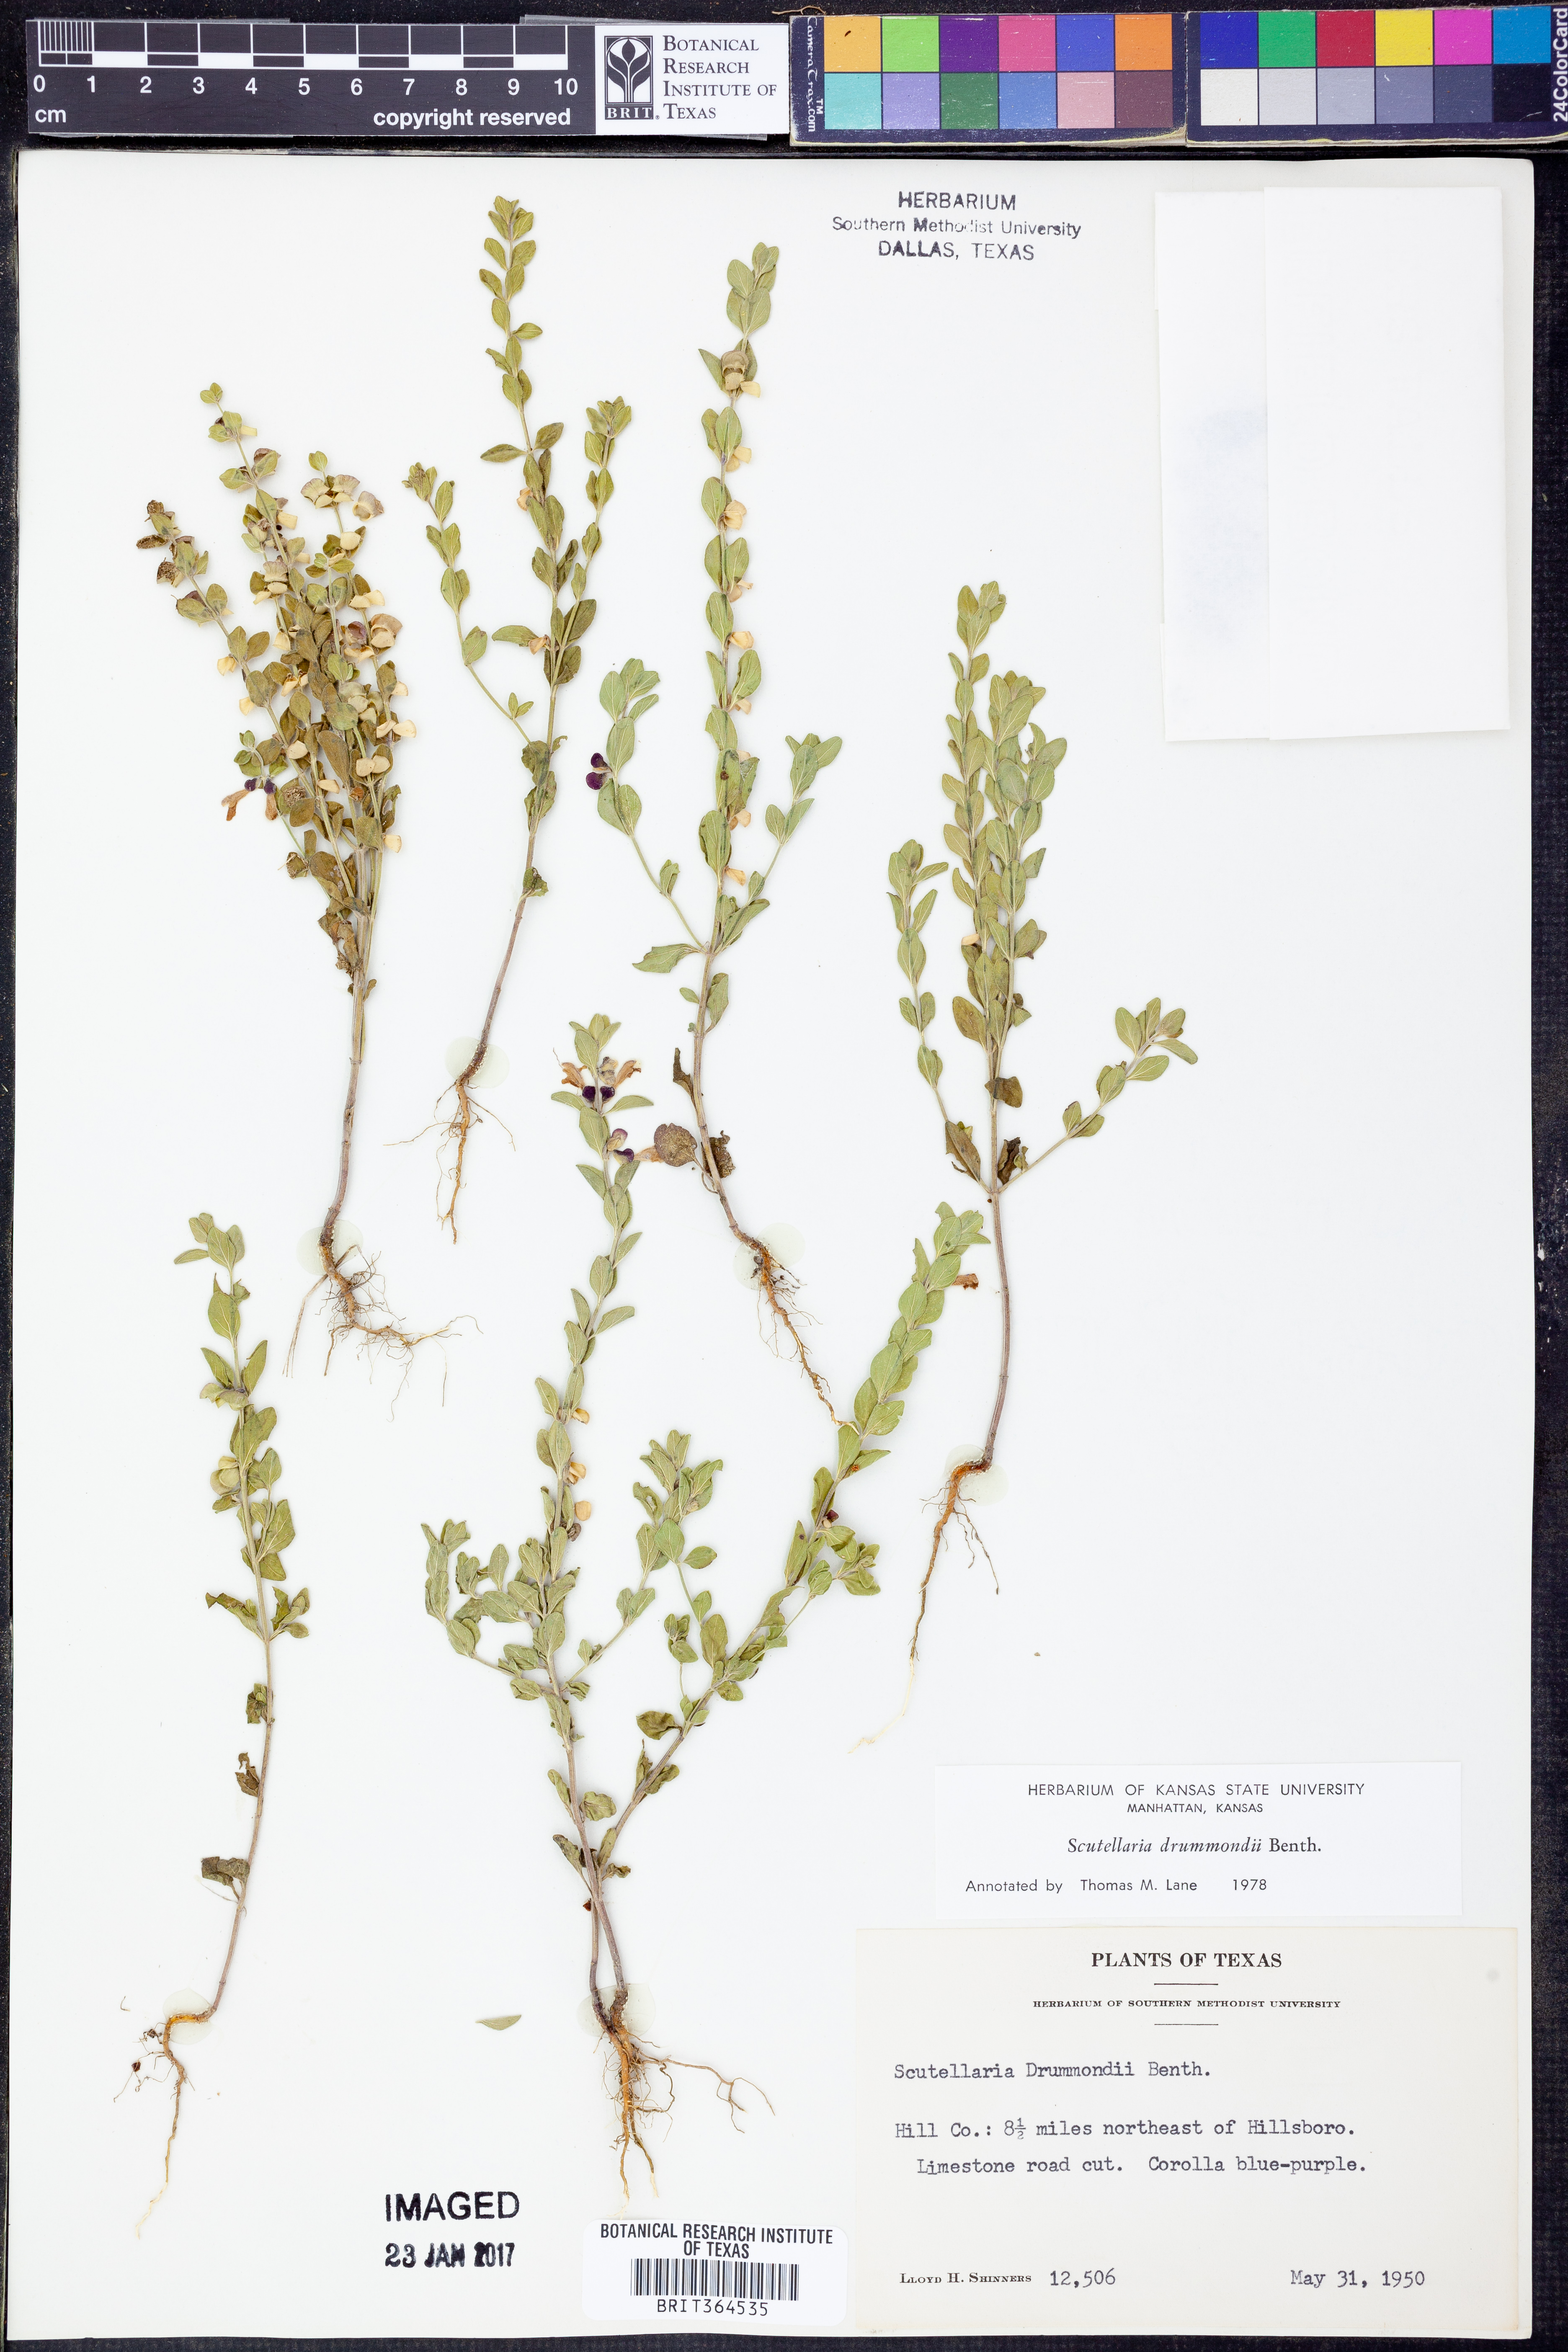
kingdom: Plantae
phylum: Tracheophyta
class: Magnoliopsida
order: Lamiales
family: Lamiaceae
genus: Scutellaria
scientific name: Scutellaria drummondii
